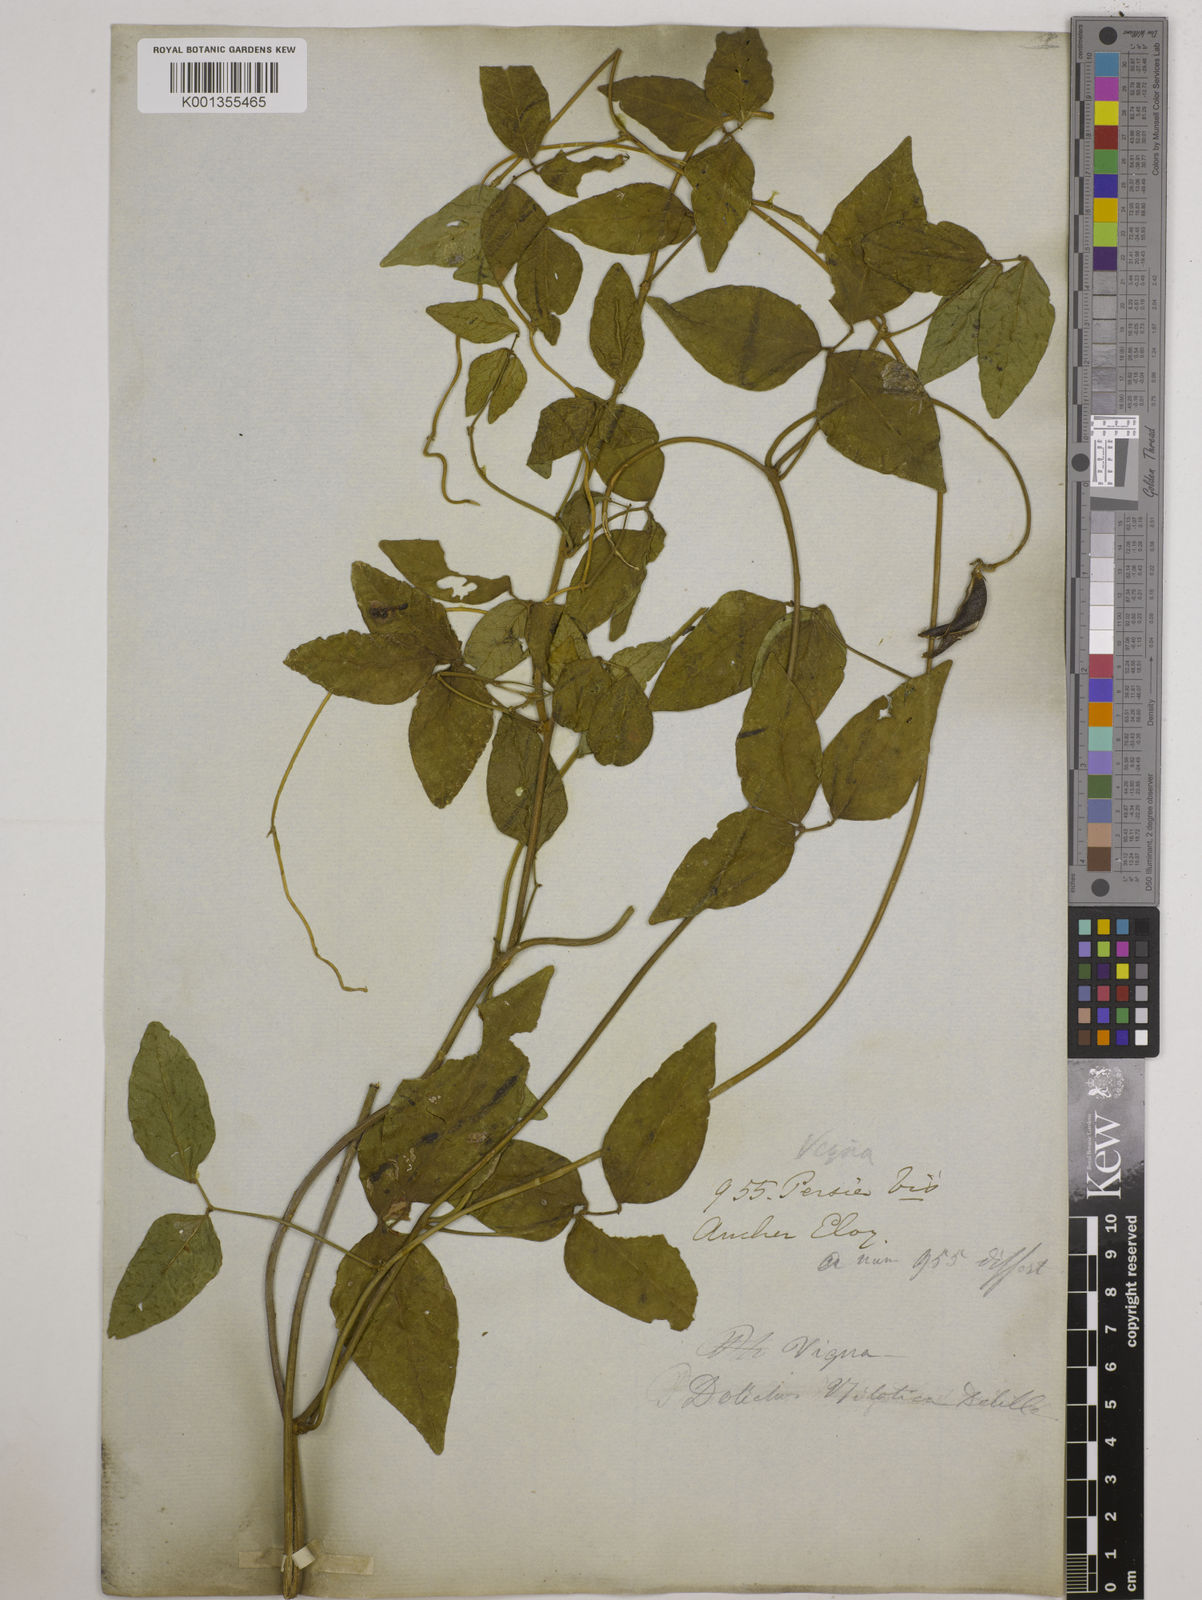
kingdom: Plantae
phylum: Tracheophyta
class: Magnoliopsida
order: Fabales
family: Fabaceae
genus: Vigna
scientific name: Vigna luteola
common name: Hairypod cowpea
